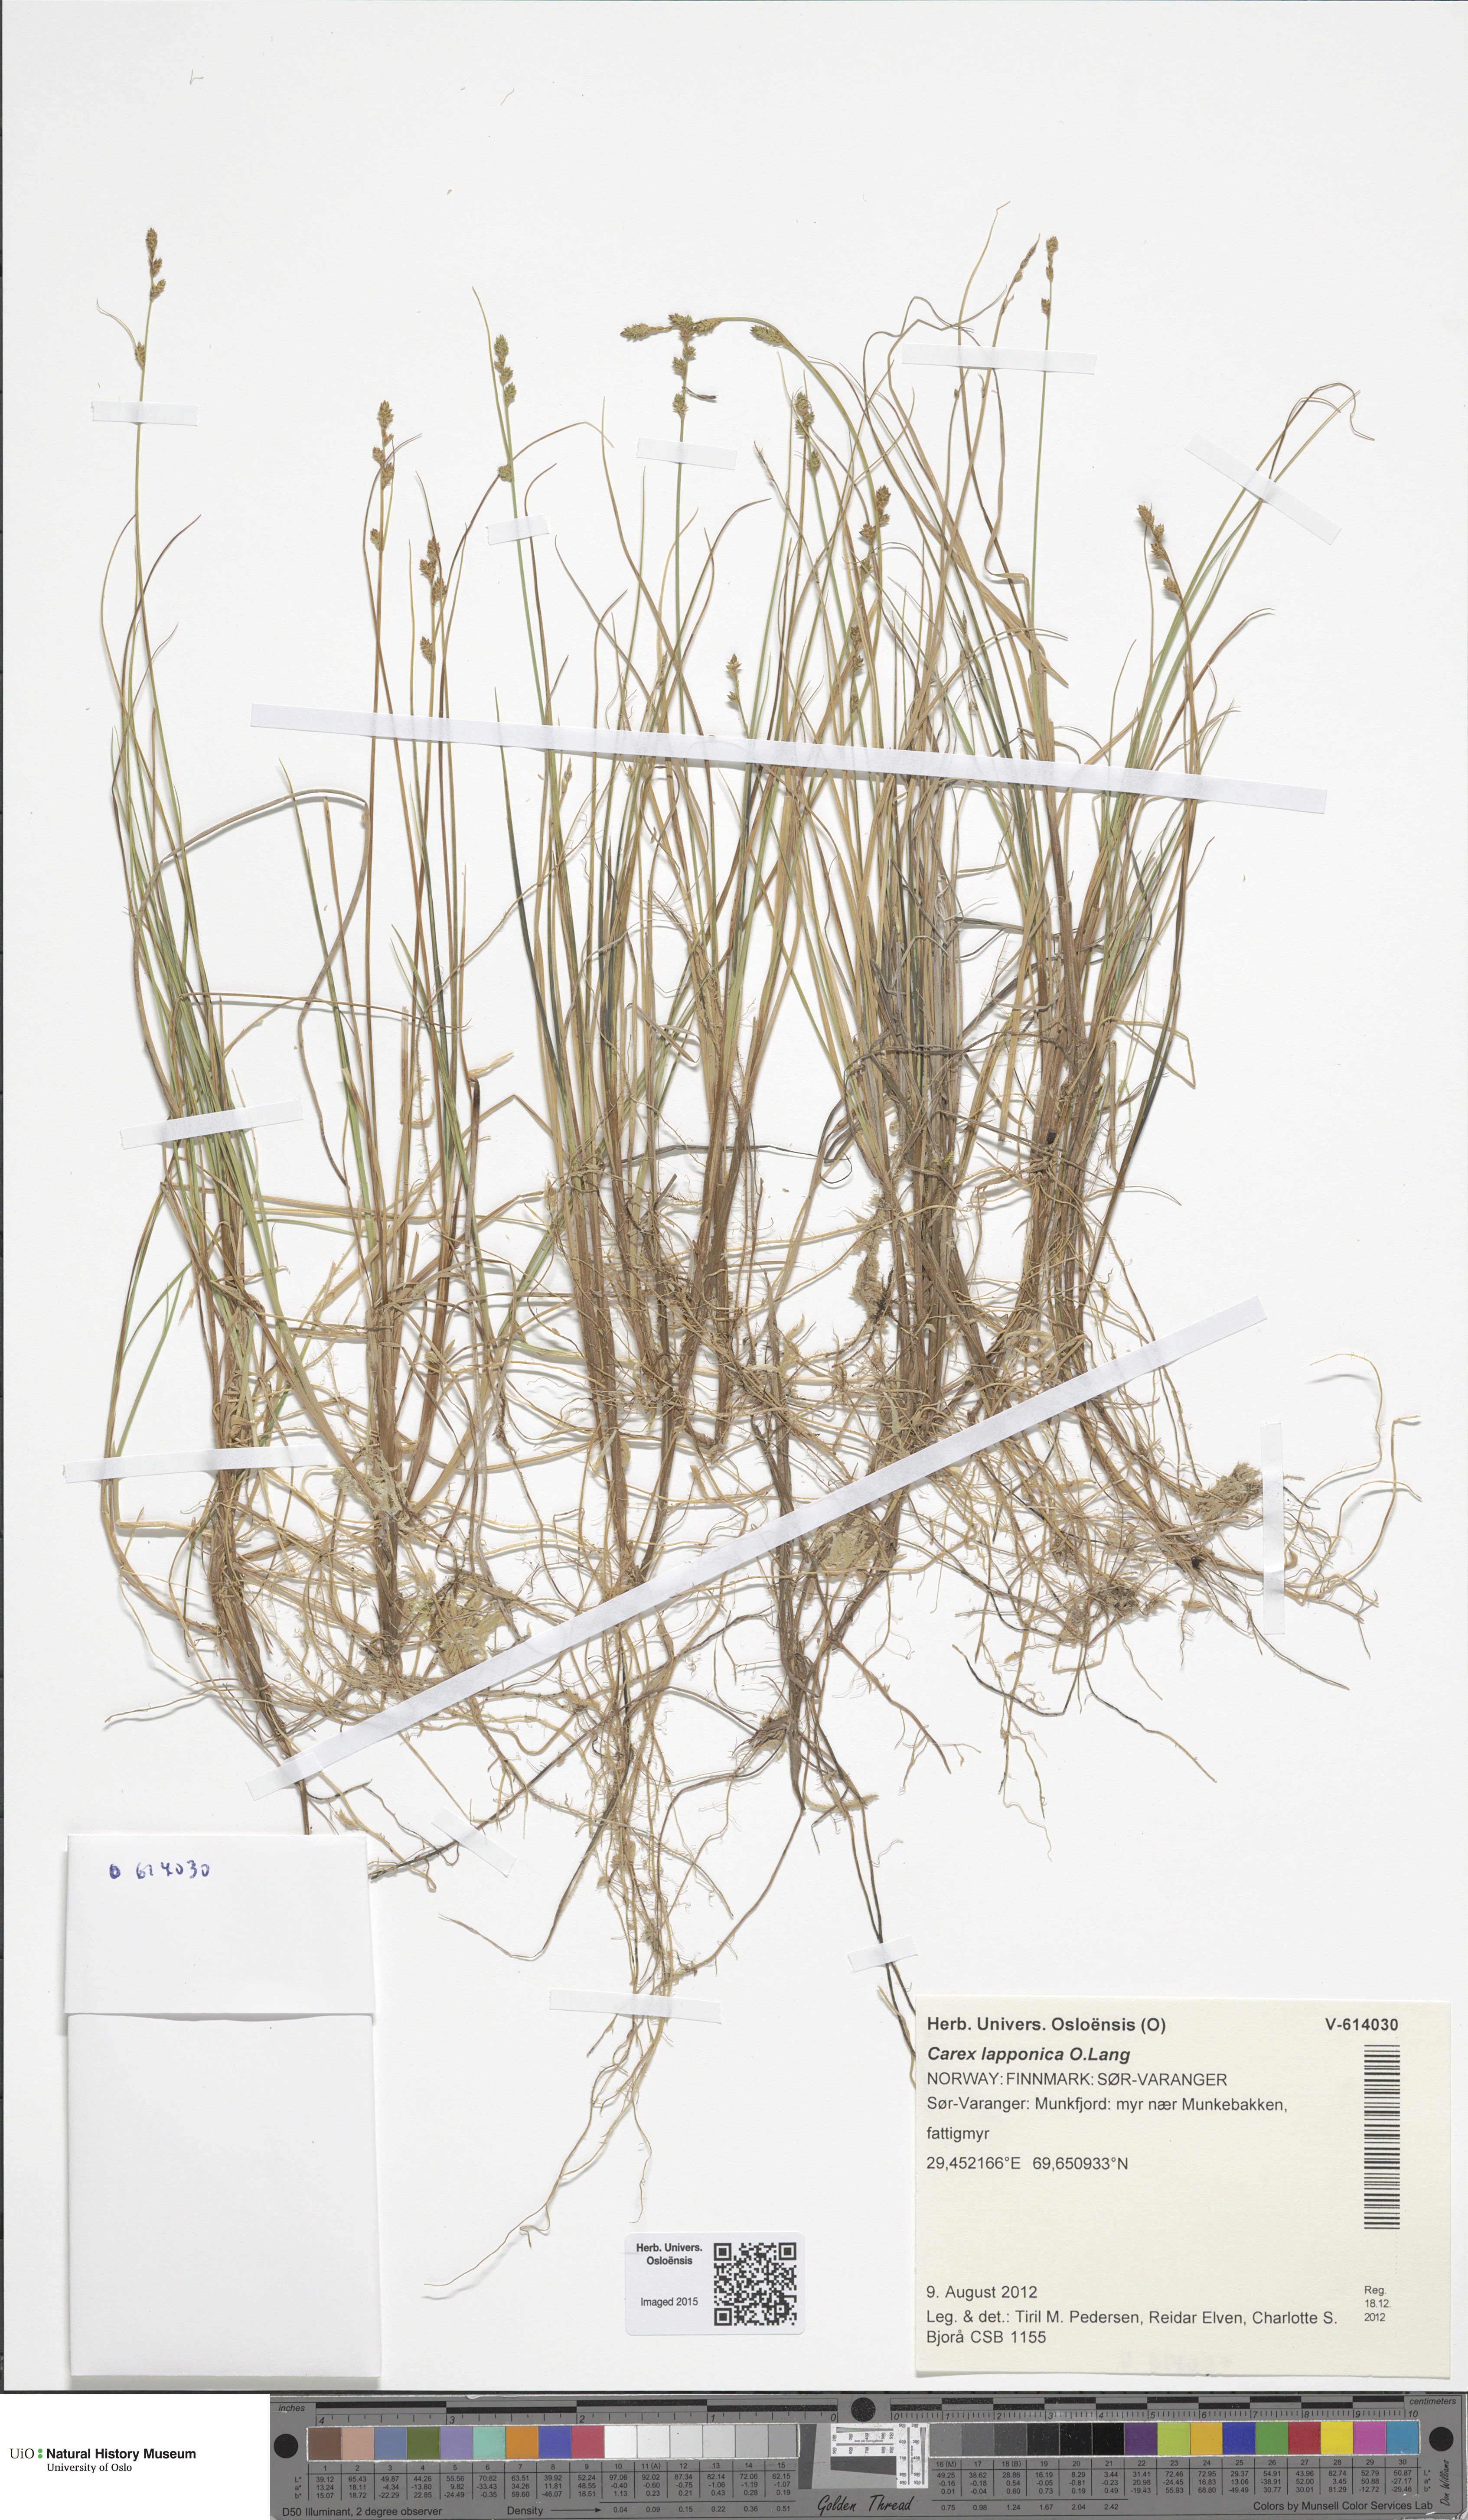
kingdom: Plantae
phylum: Tracheophyta
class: Liliopsida
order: Poales
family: Cyperaceae
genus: Carex
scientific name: Carex lapponica
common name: Lapland sedge
